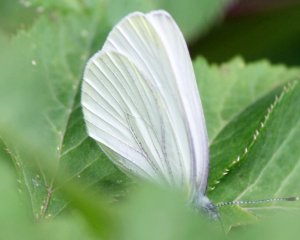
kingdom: Animalia
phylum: Arthropoda
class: Insecta
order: Lepidoptera
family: Pieridae
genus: Pieris
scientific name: Pieris oleracea
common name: Mustard White
